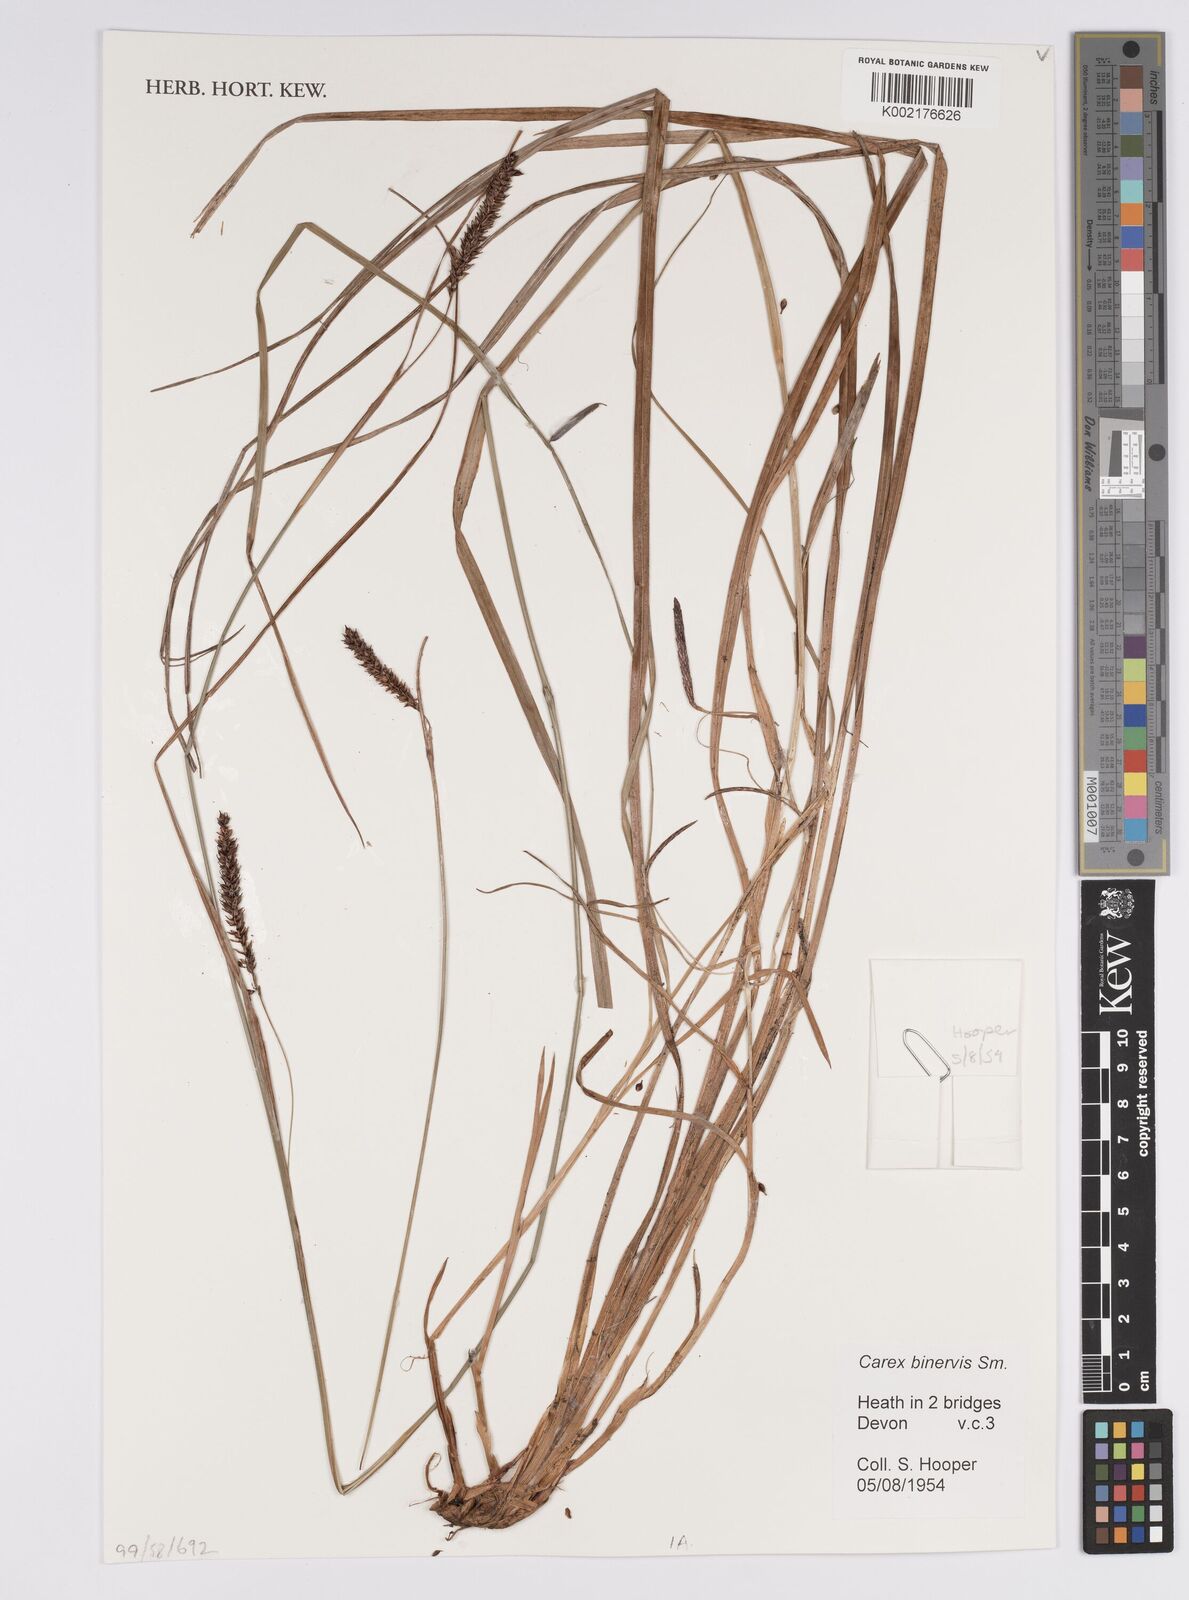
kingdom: Plantae
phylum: Tracheophyta
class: Liliopsida
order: Poales
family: Cyperaceae
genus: Carex
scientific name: Carex binervis
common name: Green-ribbed sedge
